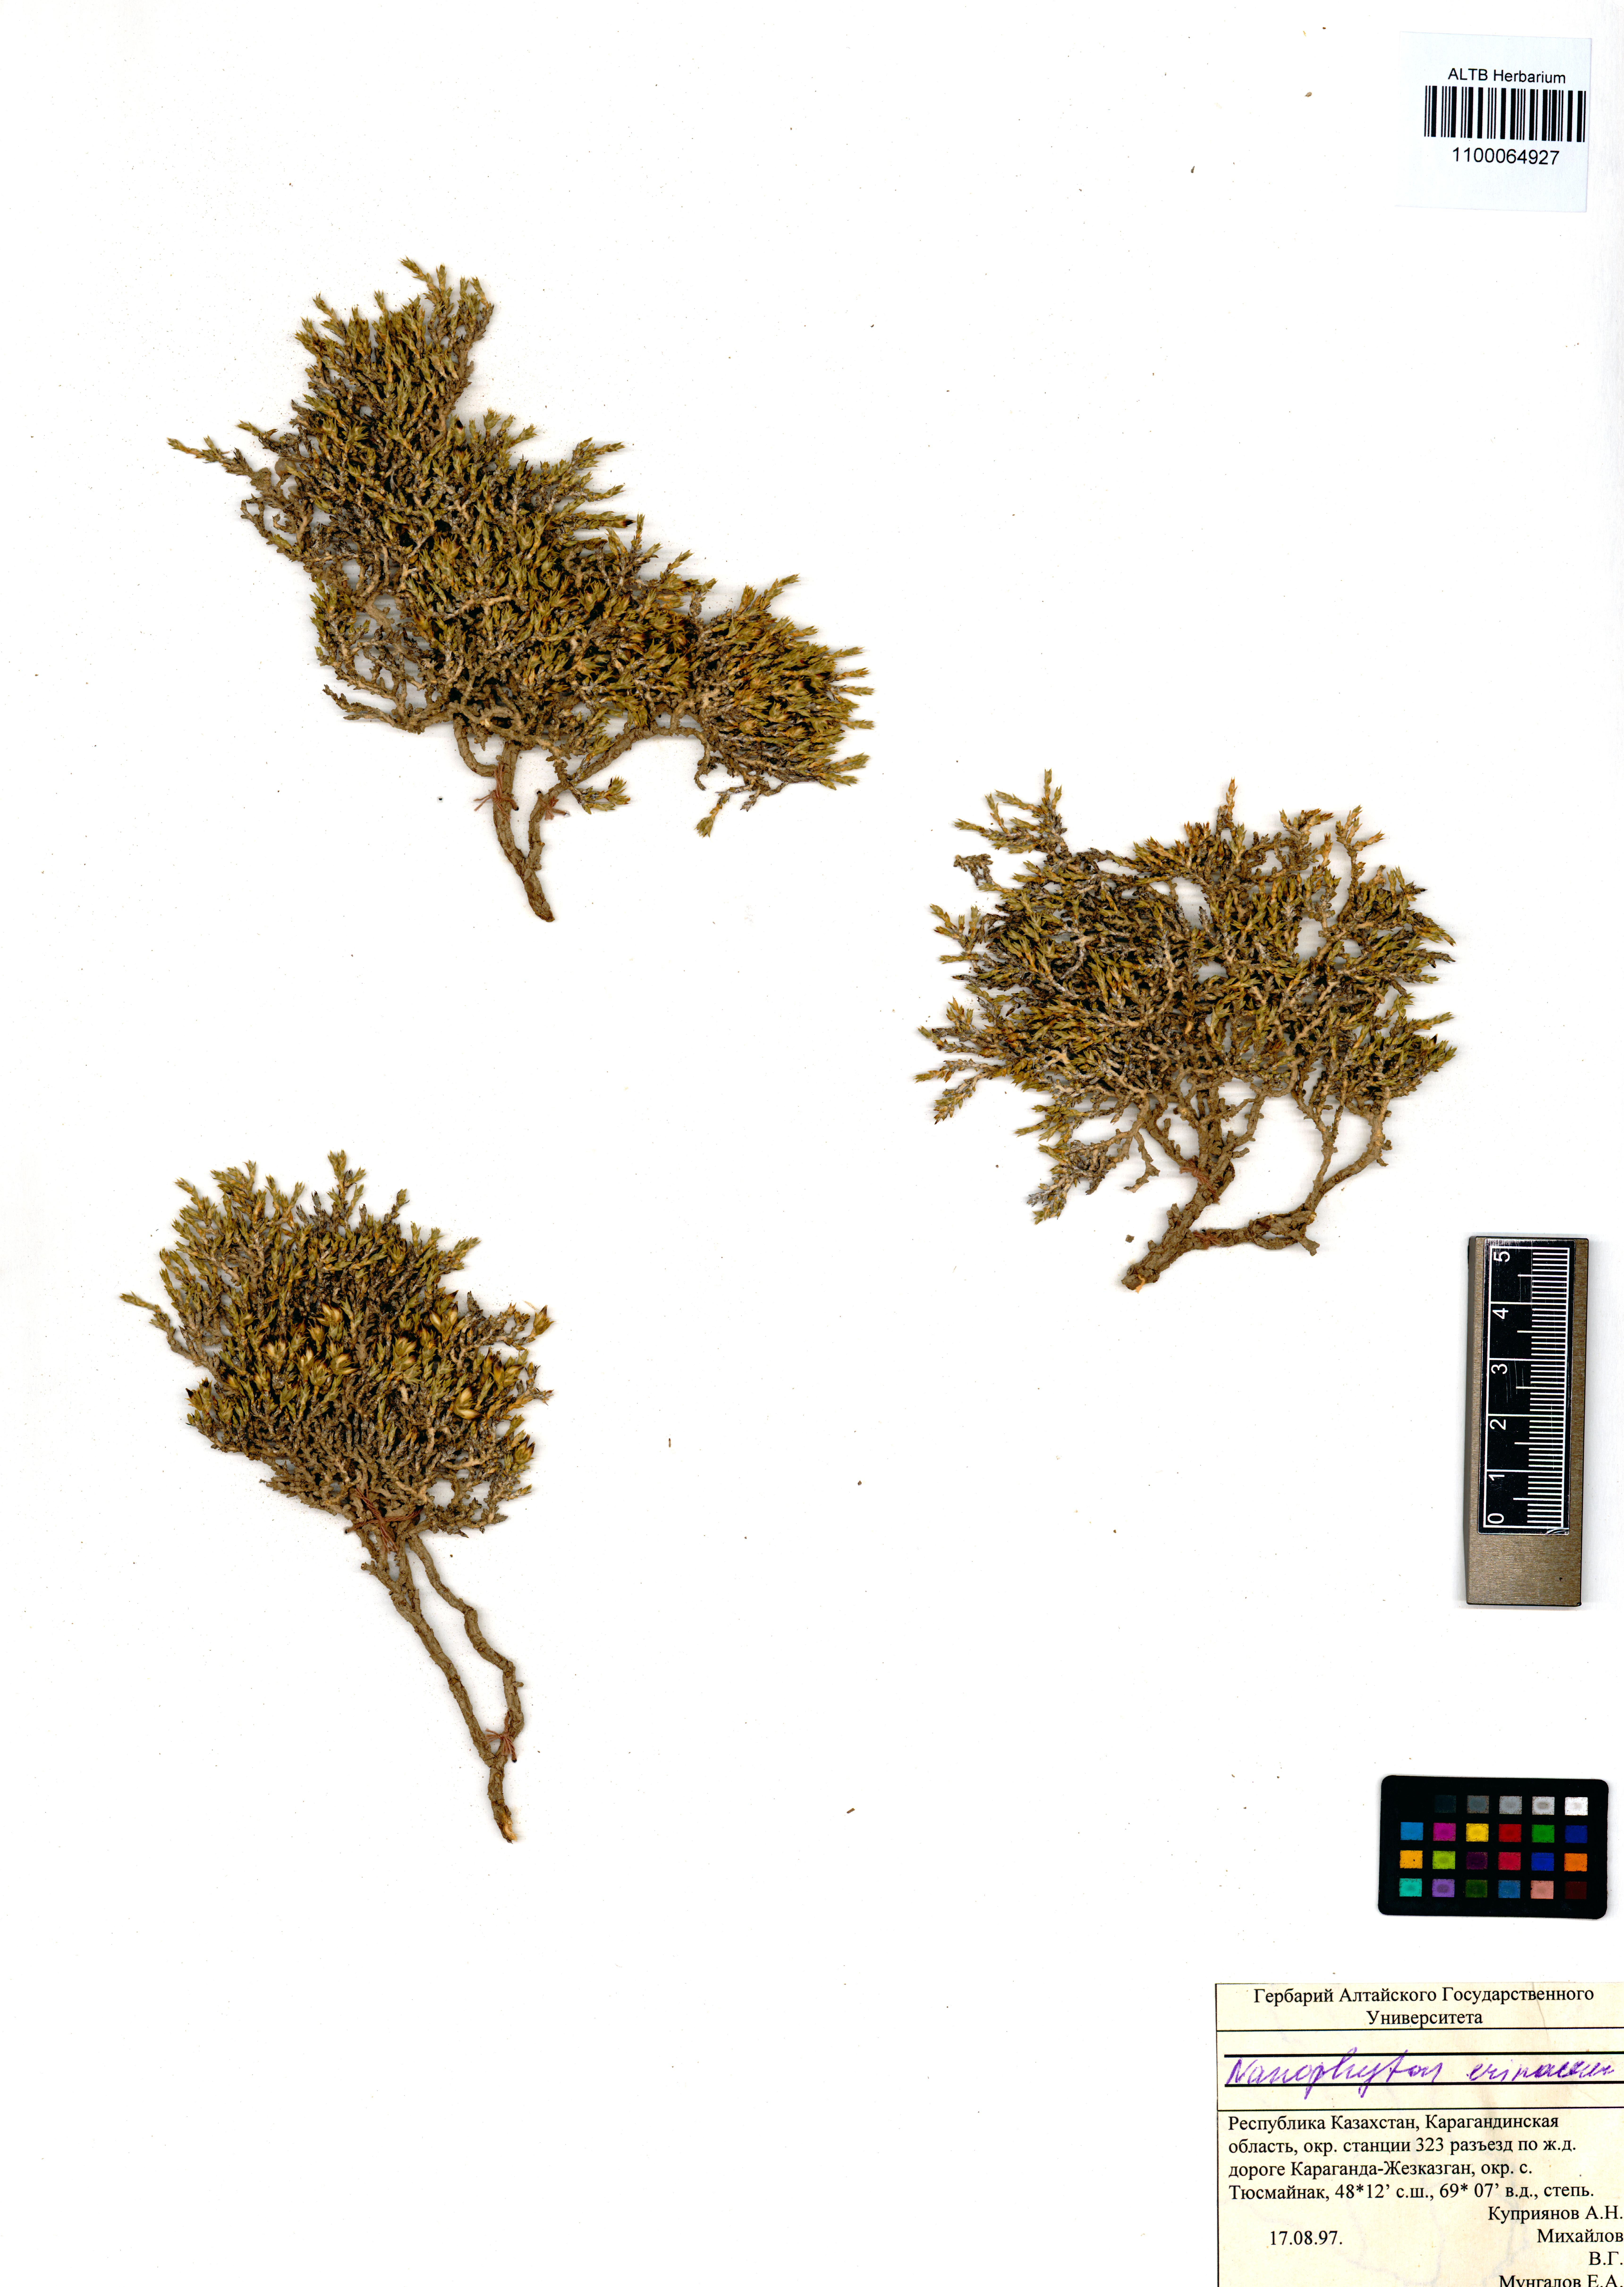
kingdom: Plantae
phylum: Tracheophyta
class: Magnoliopsida
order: Caryophyllales
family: Amaranthaceae
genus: Nanophyton
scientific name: Nanophyton erinaceum
